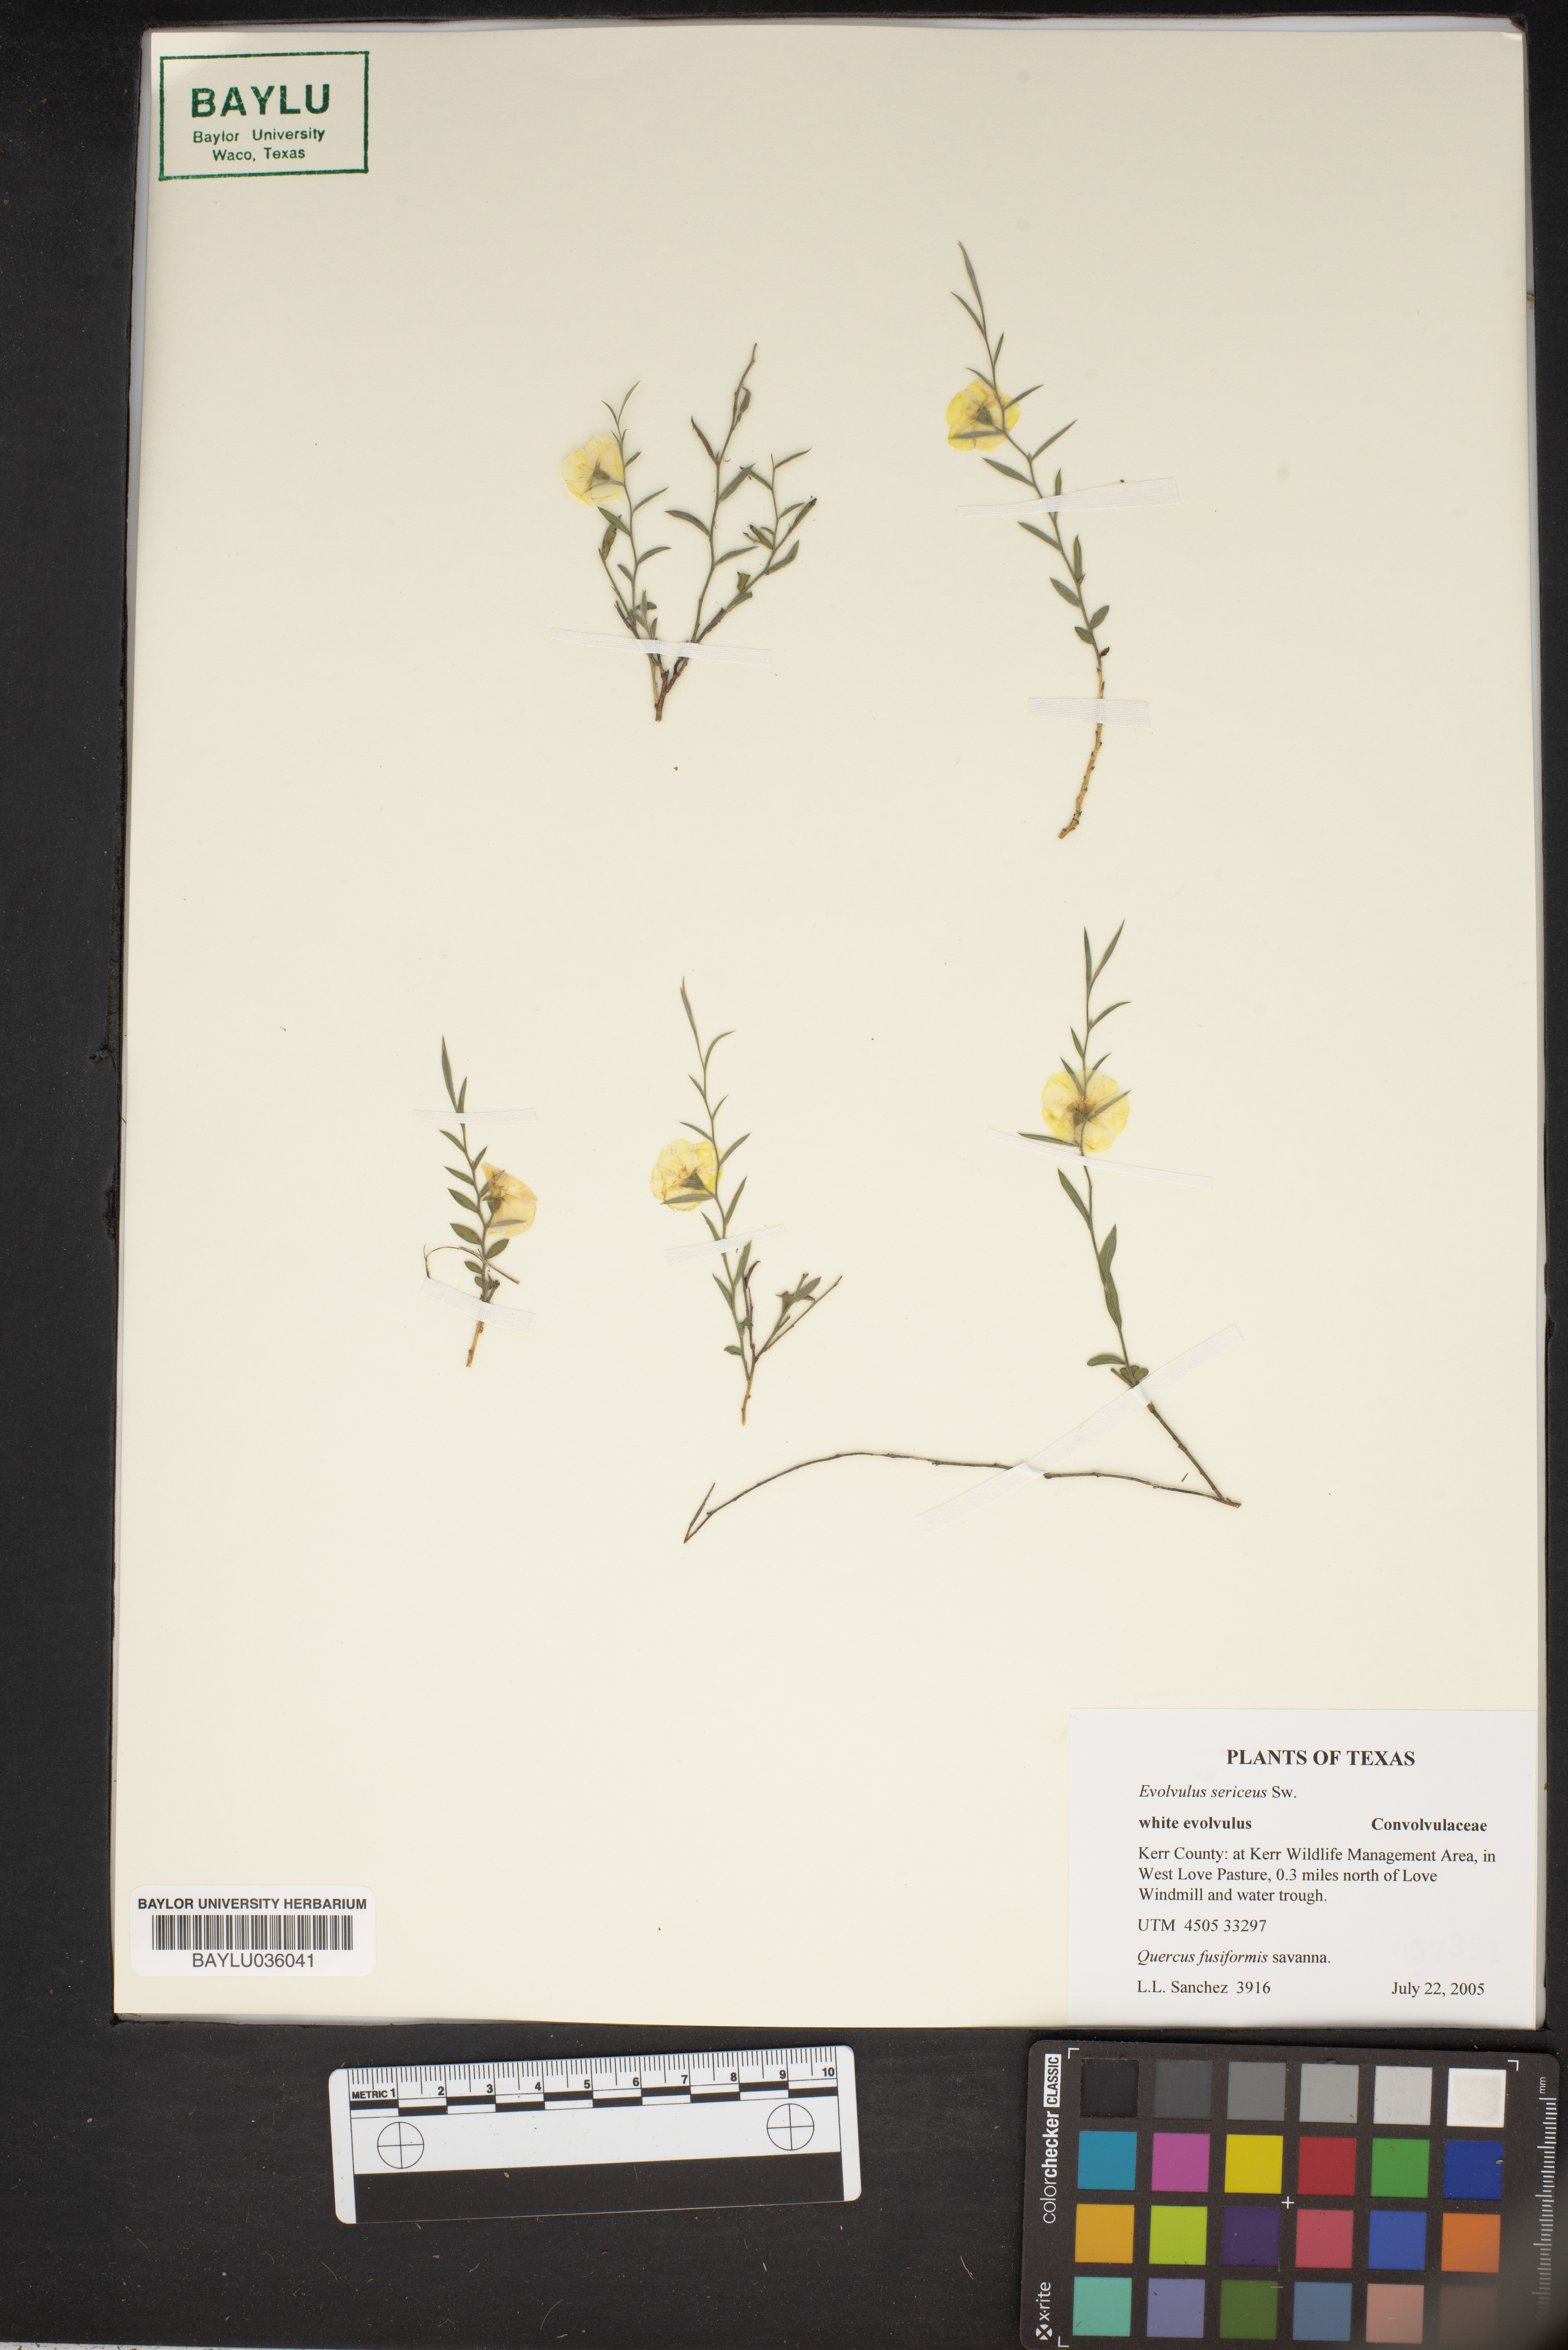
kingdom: Plantae
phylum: Tracheophyta
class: Magnoliopsida
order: Solanales
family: Convolvulaceae
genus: Evolvulus
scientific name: Evolvulus sericeus
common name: Blue dots
